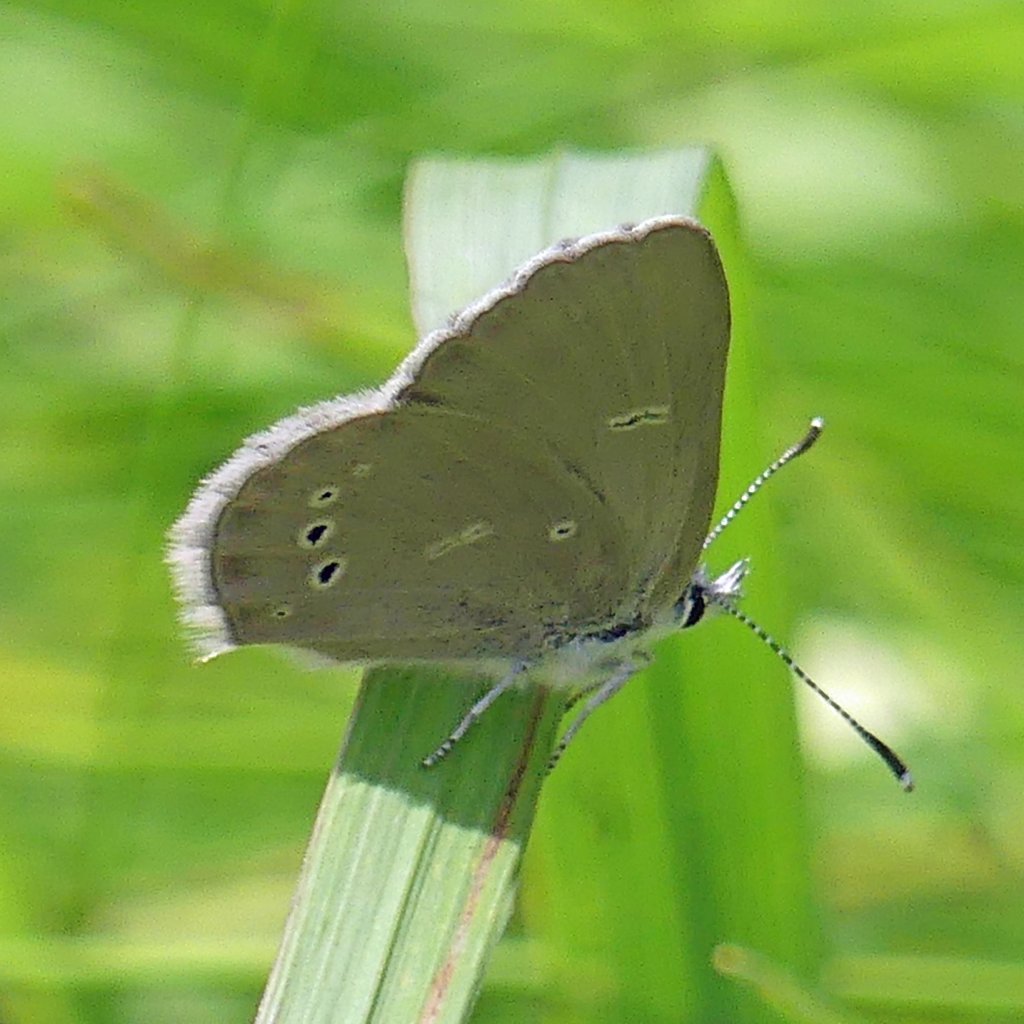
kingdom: Animalia
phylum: Arthropoda
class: Insecta
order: Lepidoptera
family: Lycaenidae
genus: Glaucopsyche
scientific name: Glaucopsyche lygdamus
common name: Silvery Blue
